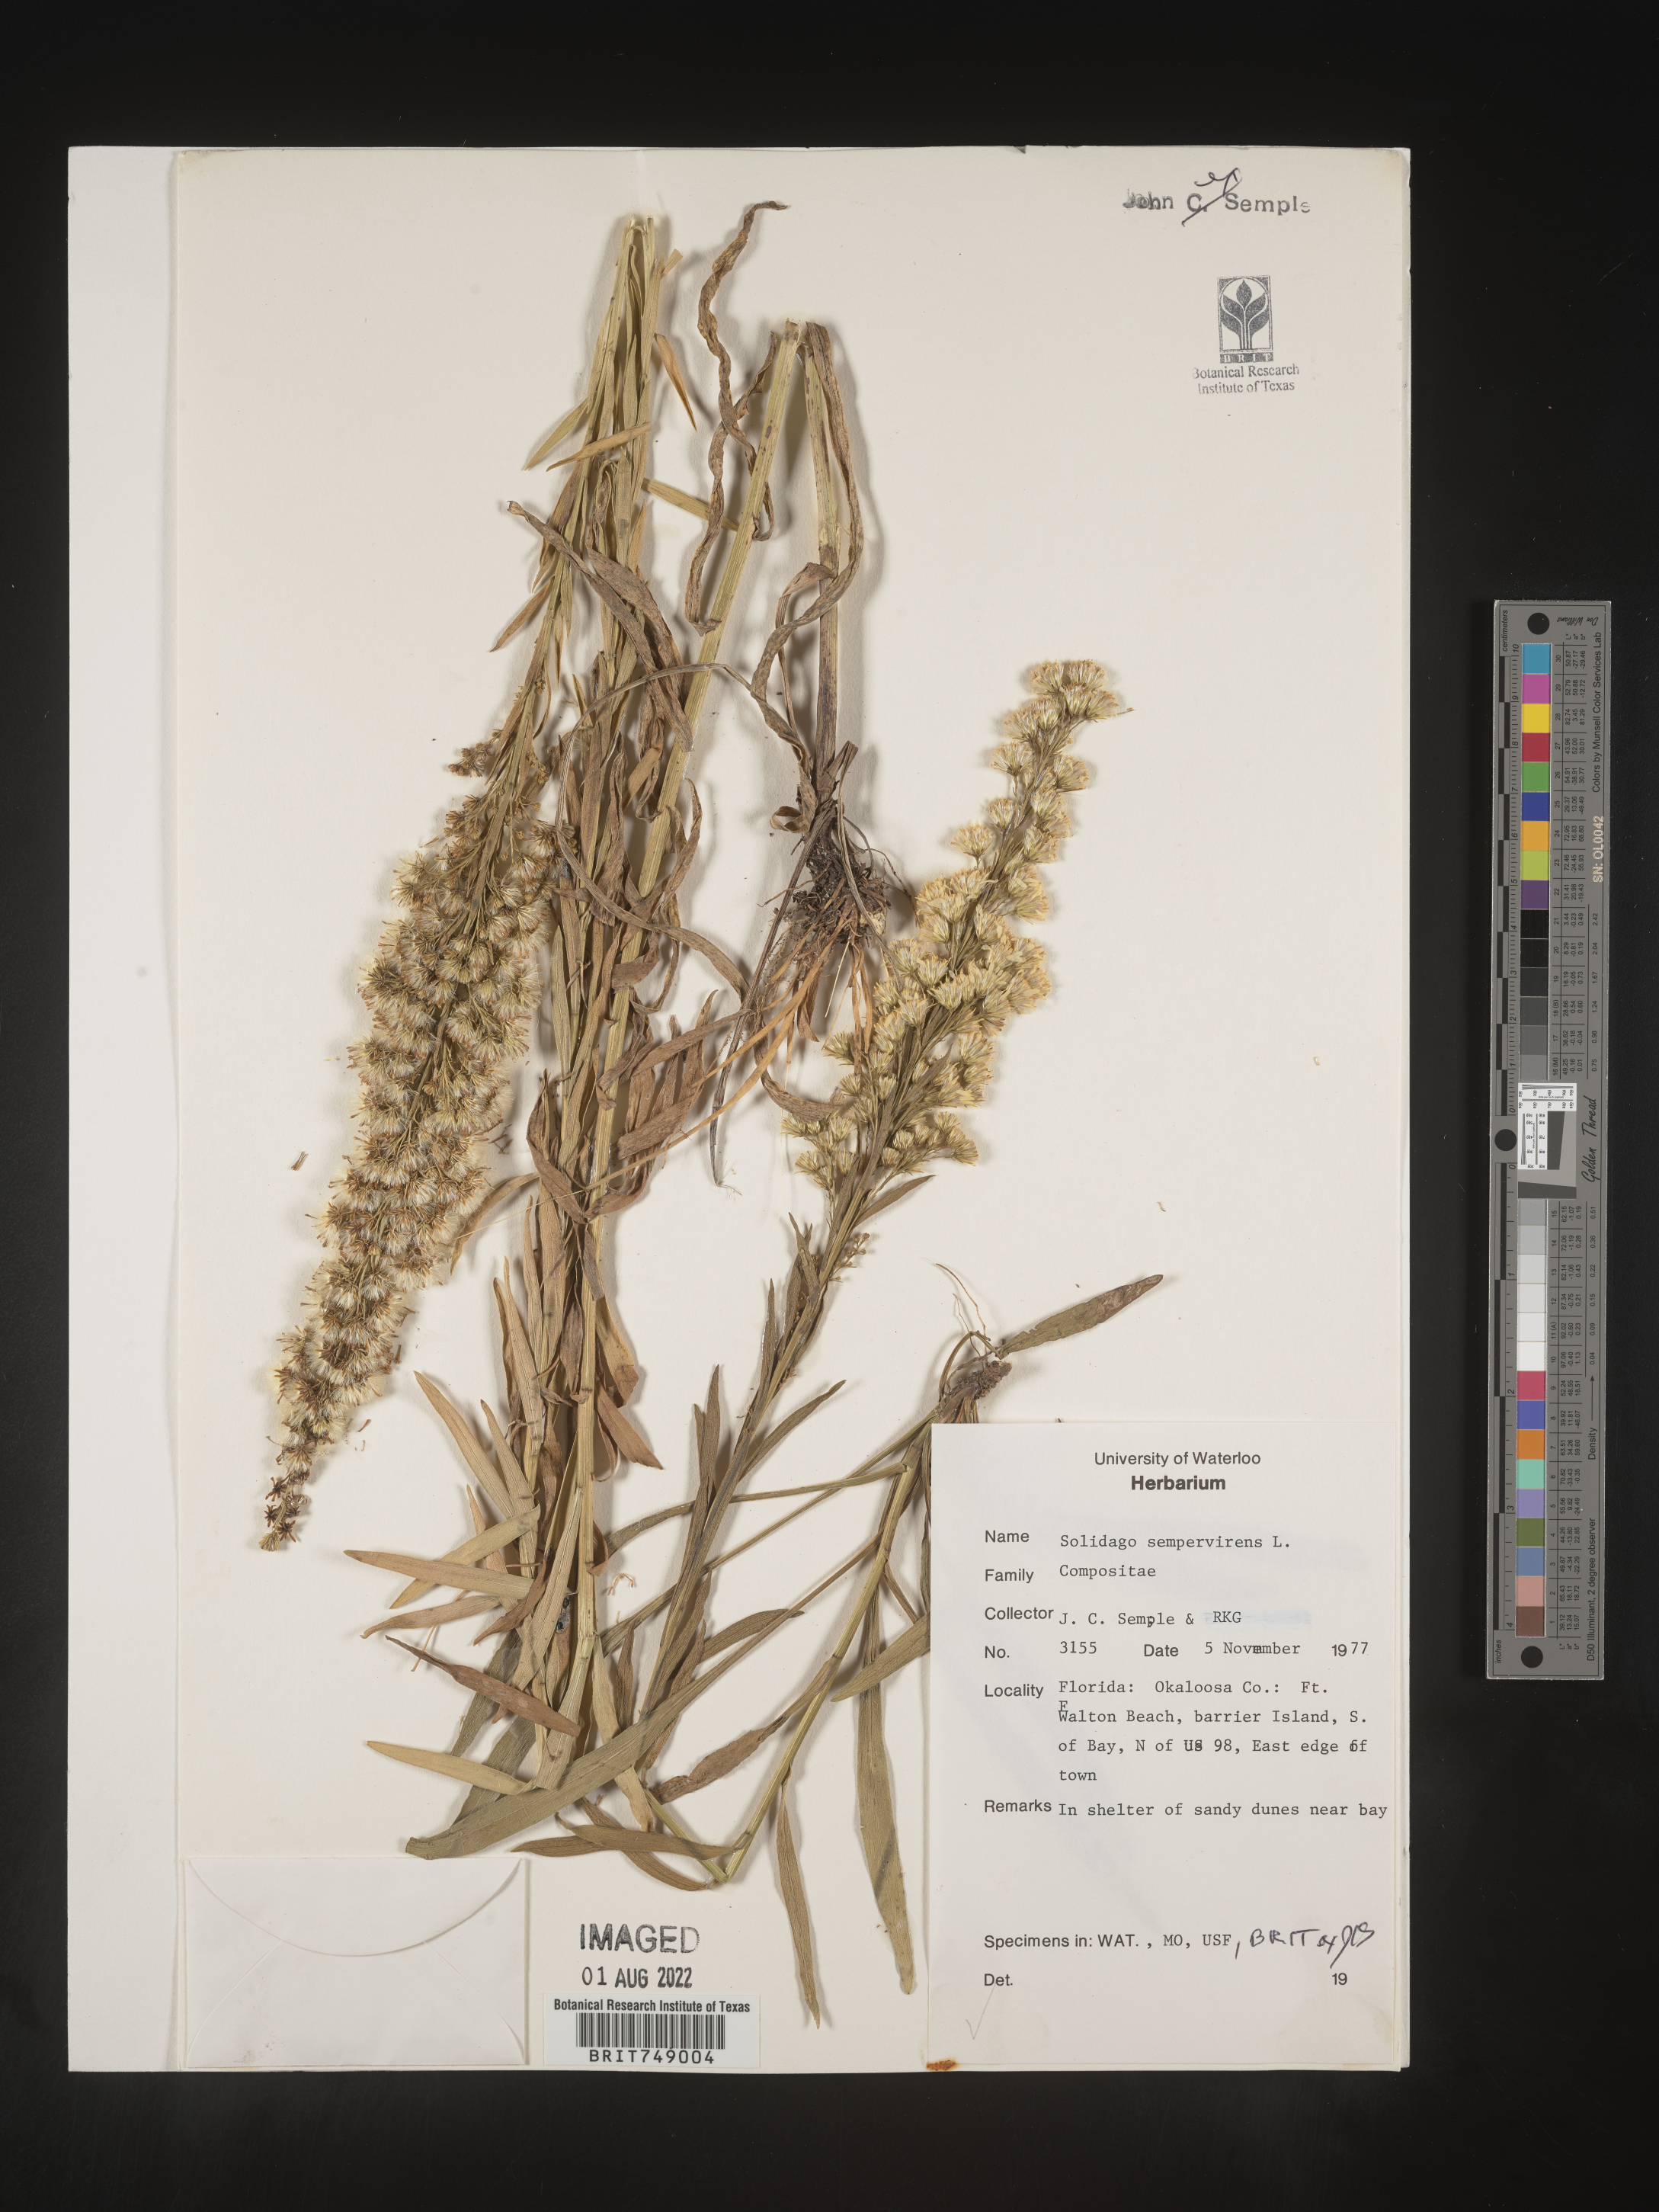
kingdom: Plantae
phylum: Tracheophyta
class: Magnoliopsida
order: Asterales
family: Asteraceae
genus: Solidago
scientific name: Solidago sempervirens
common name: Salt-marsh goldenrod
